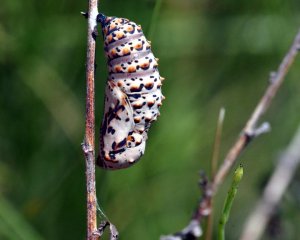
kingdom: Animalia
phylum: Arthropoda
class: Insecta
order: Lepidoptera
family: Nymphalidae
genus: Euptoieta
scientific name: Euptoieta claudia
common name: Variegated Fritillary
